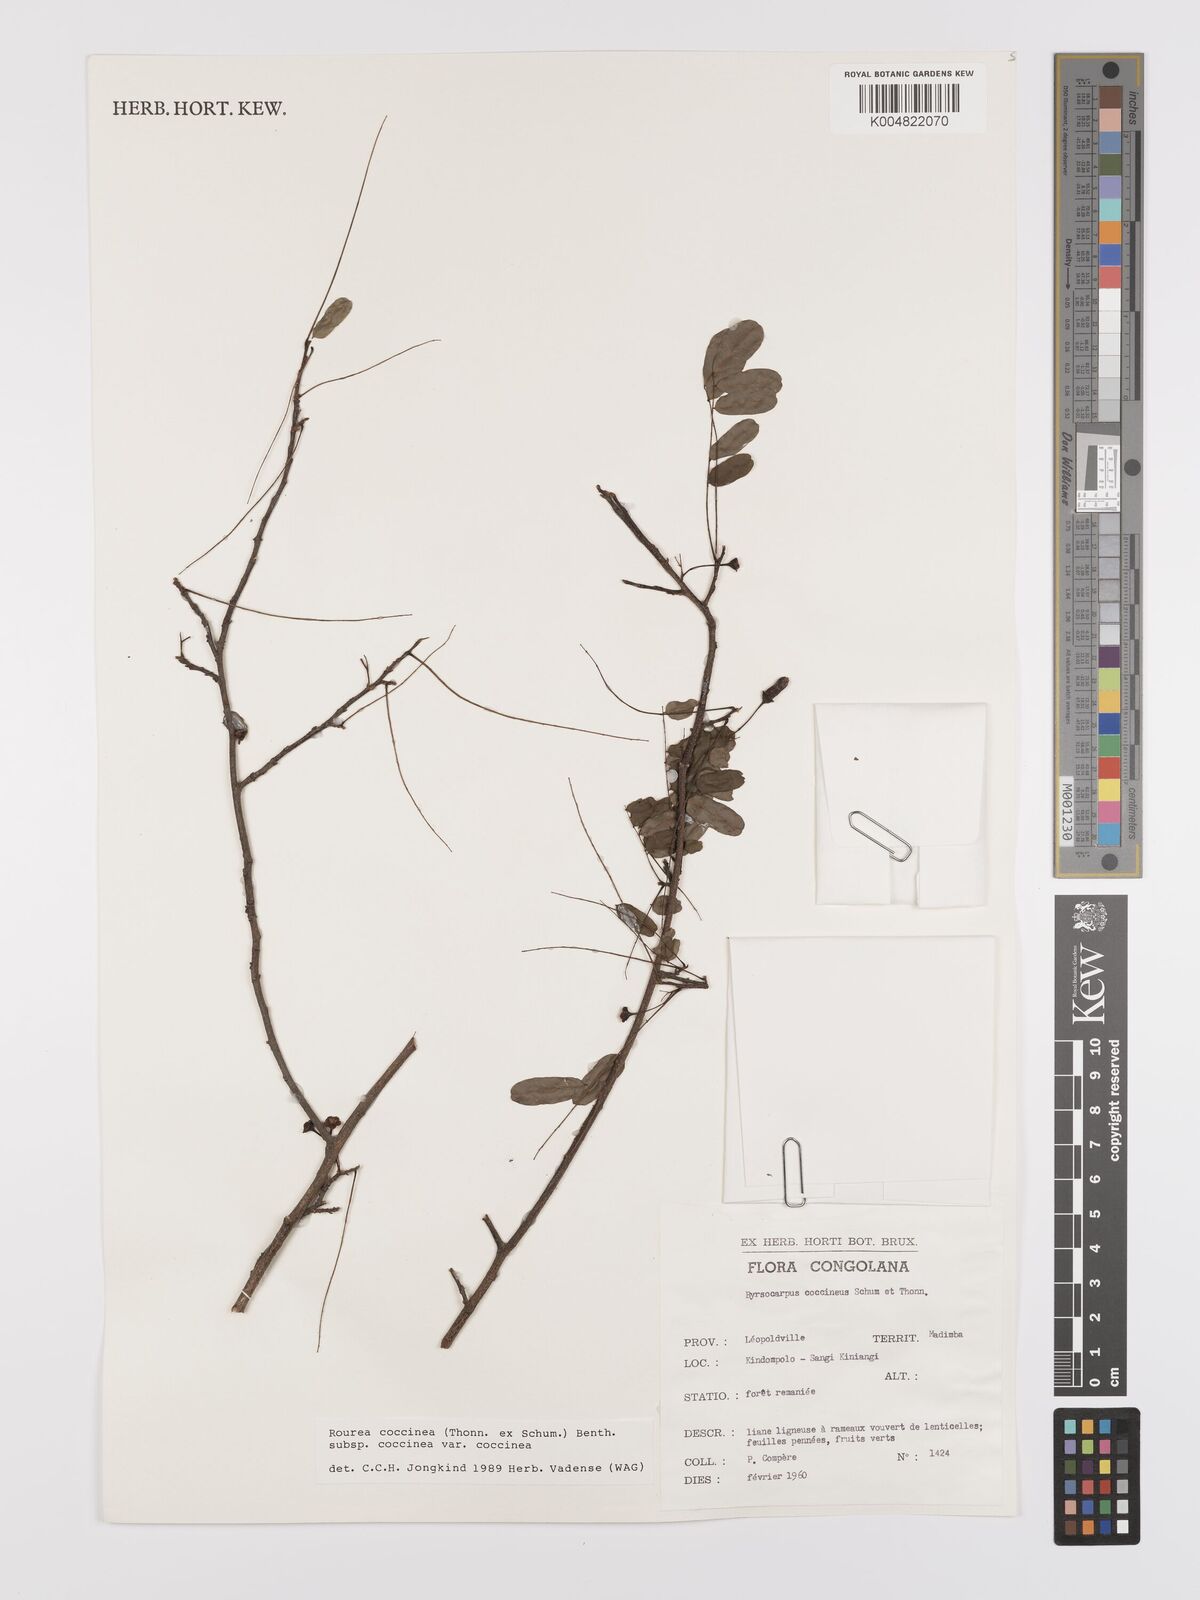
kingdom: Plantae
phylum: Tracheophyta
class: Magnoliopsida
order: Oxalidales
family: Connaraceae
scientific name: Connaraceae
